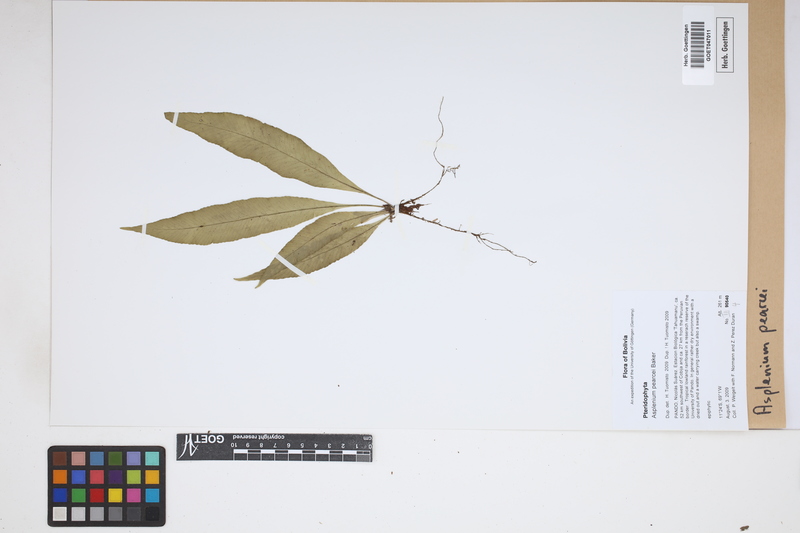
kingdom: Plantae
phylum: Tracheophyta
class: Polypodiopsida
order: Polypodiales
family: Aspleniaceae
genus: Asplenium
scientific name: Asplenium pearcei
